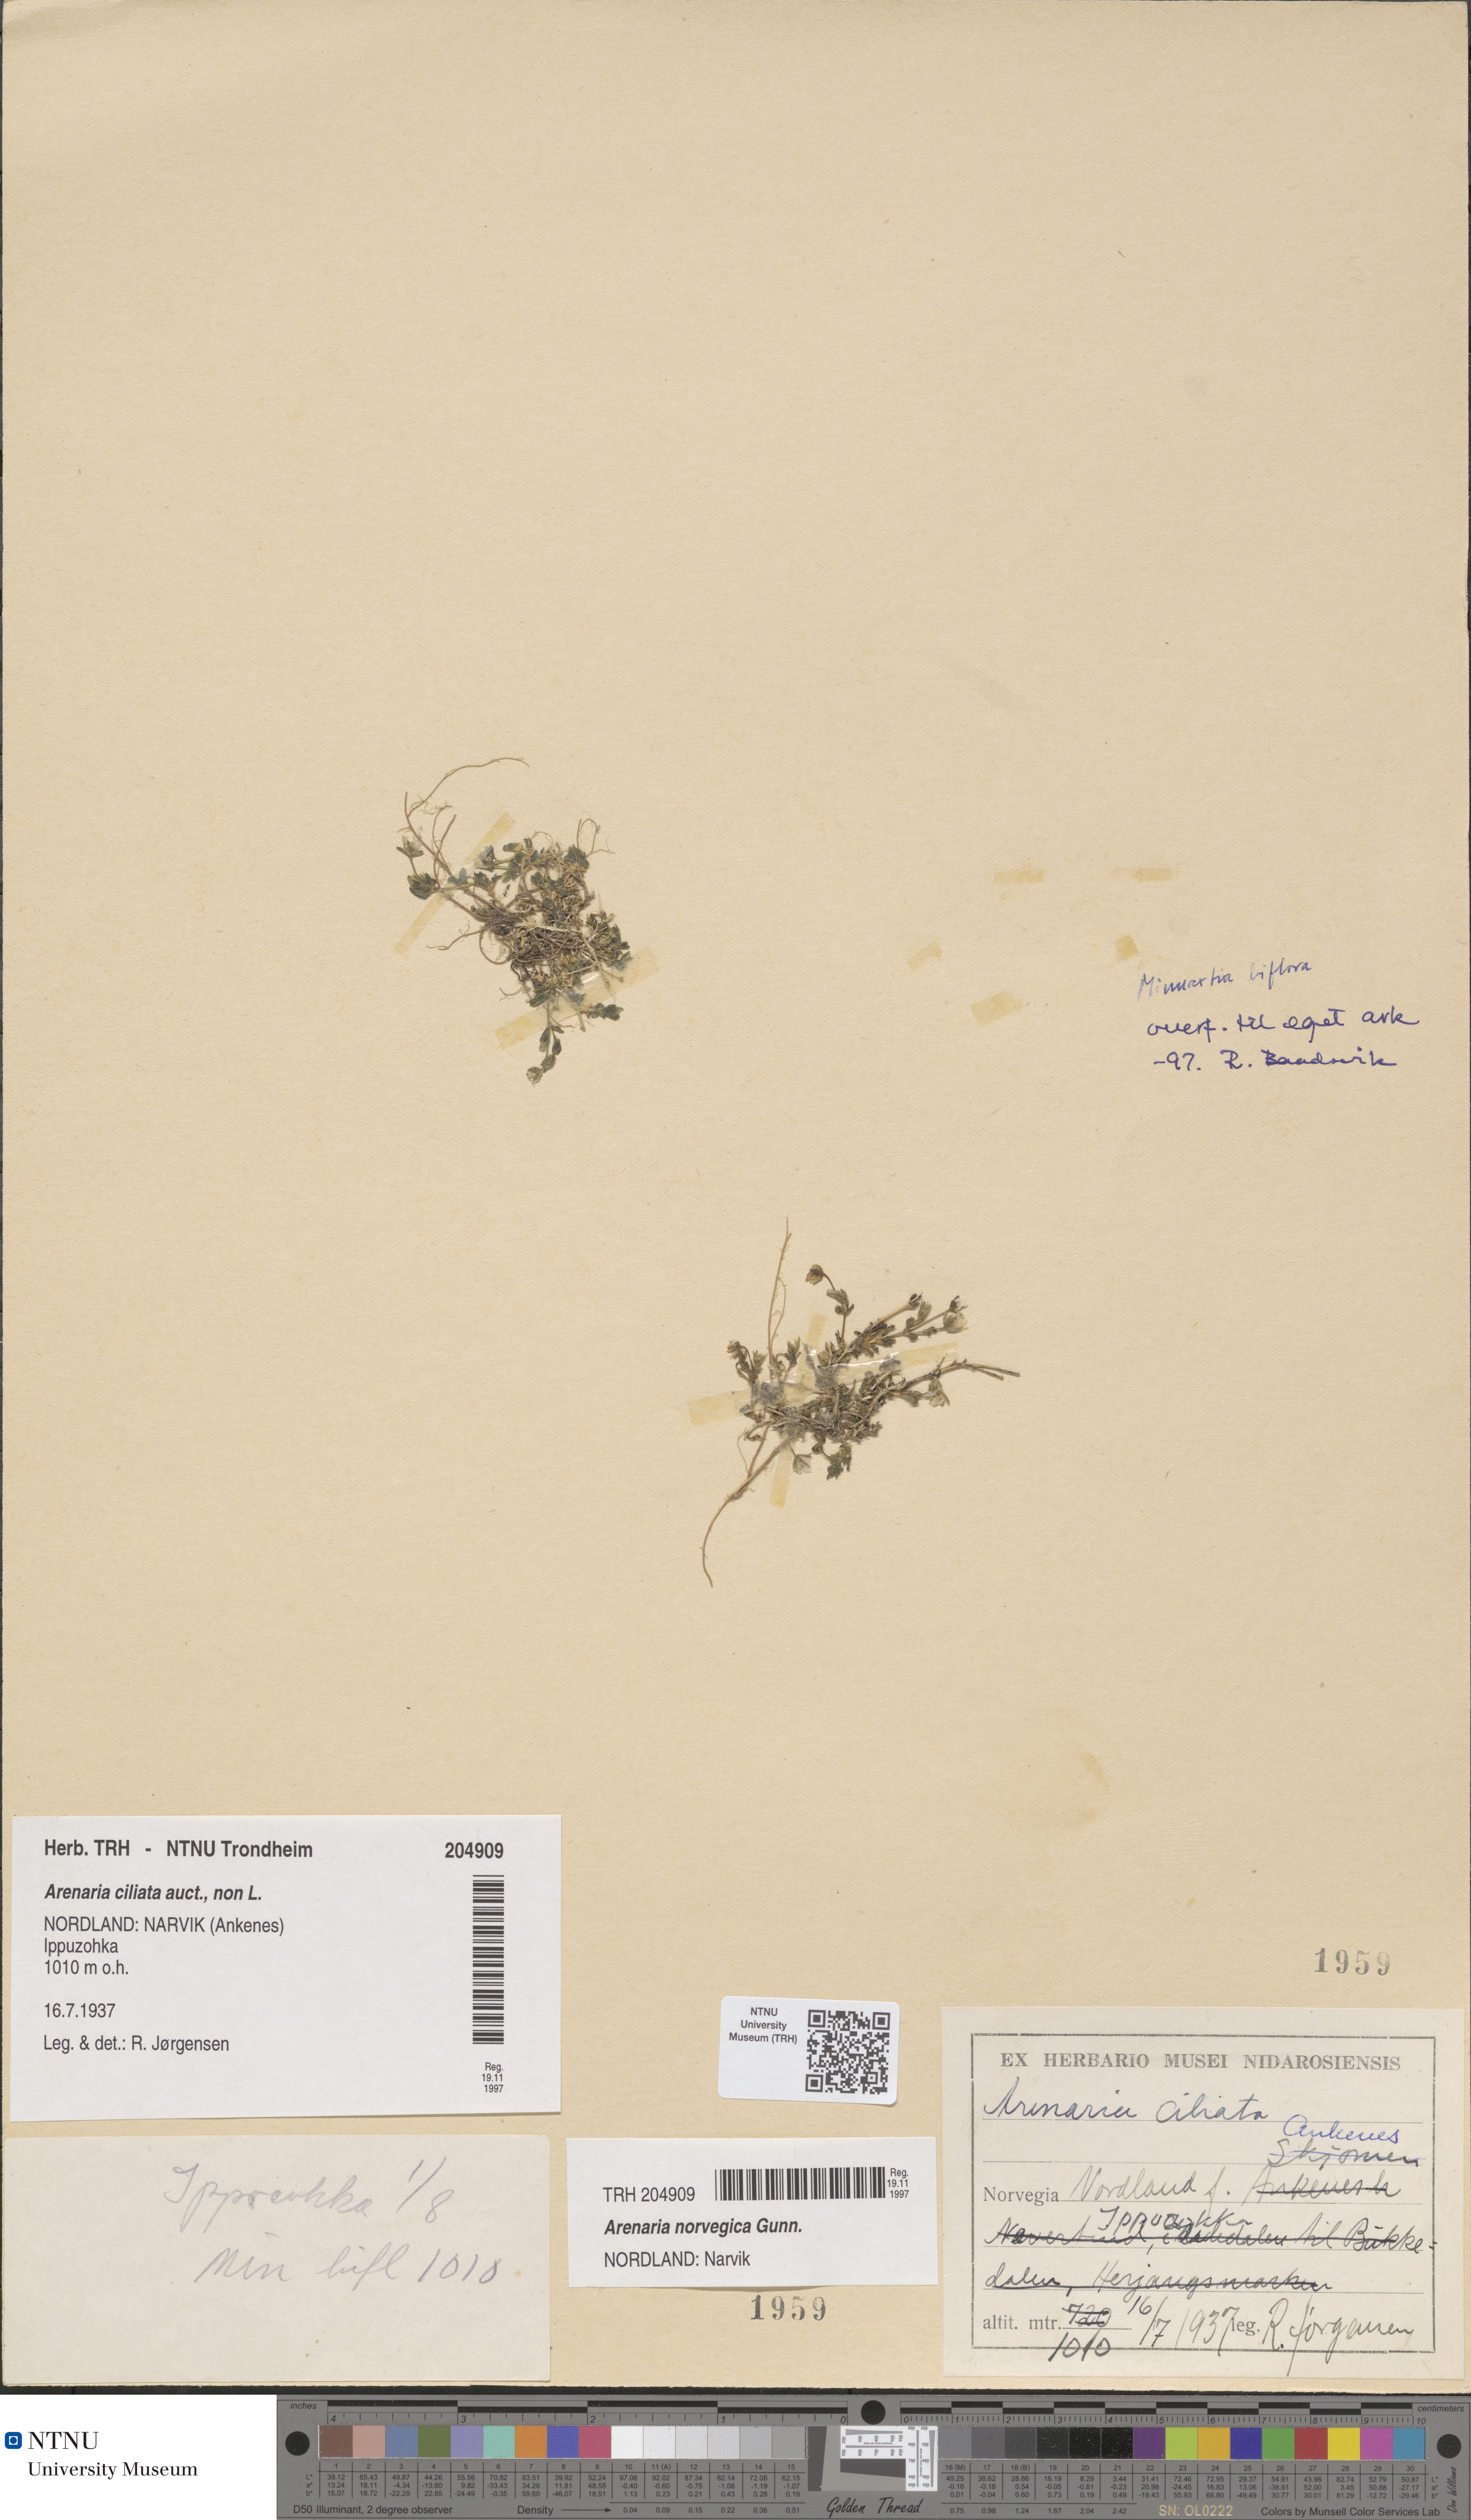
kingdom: Plantae
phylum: Tracheophyta
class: Magnoliopsida
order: Caryophyllales
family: Caryophyllaceae
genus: Arenaria
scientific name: Arenaria norvegica
